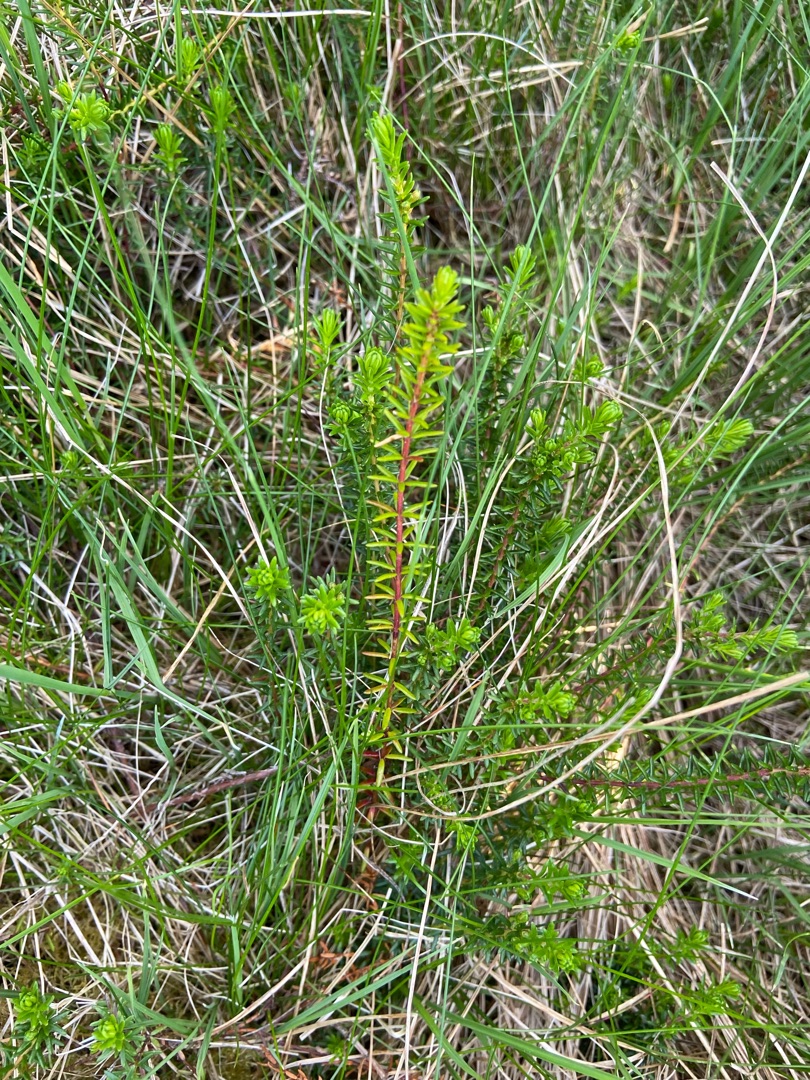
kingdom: Plantae
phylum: Tracheophyta
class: Magnoliopsida
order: Ericales
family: Ericaceae
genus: Empetrum
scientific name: Empetrum nigrum
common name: Revling
